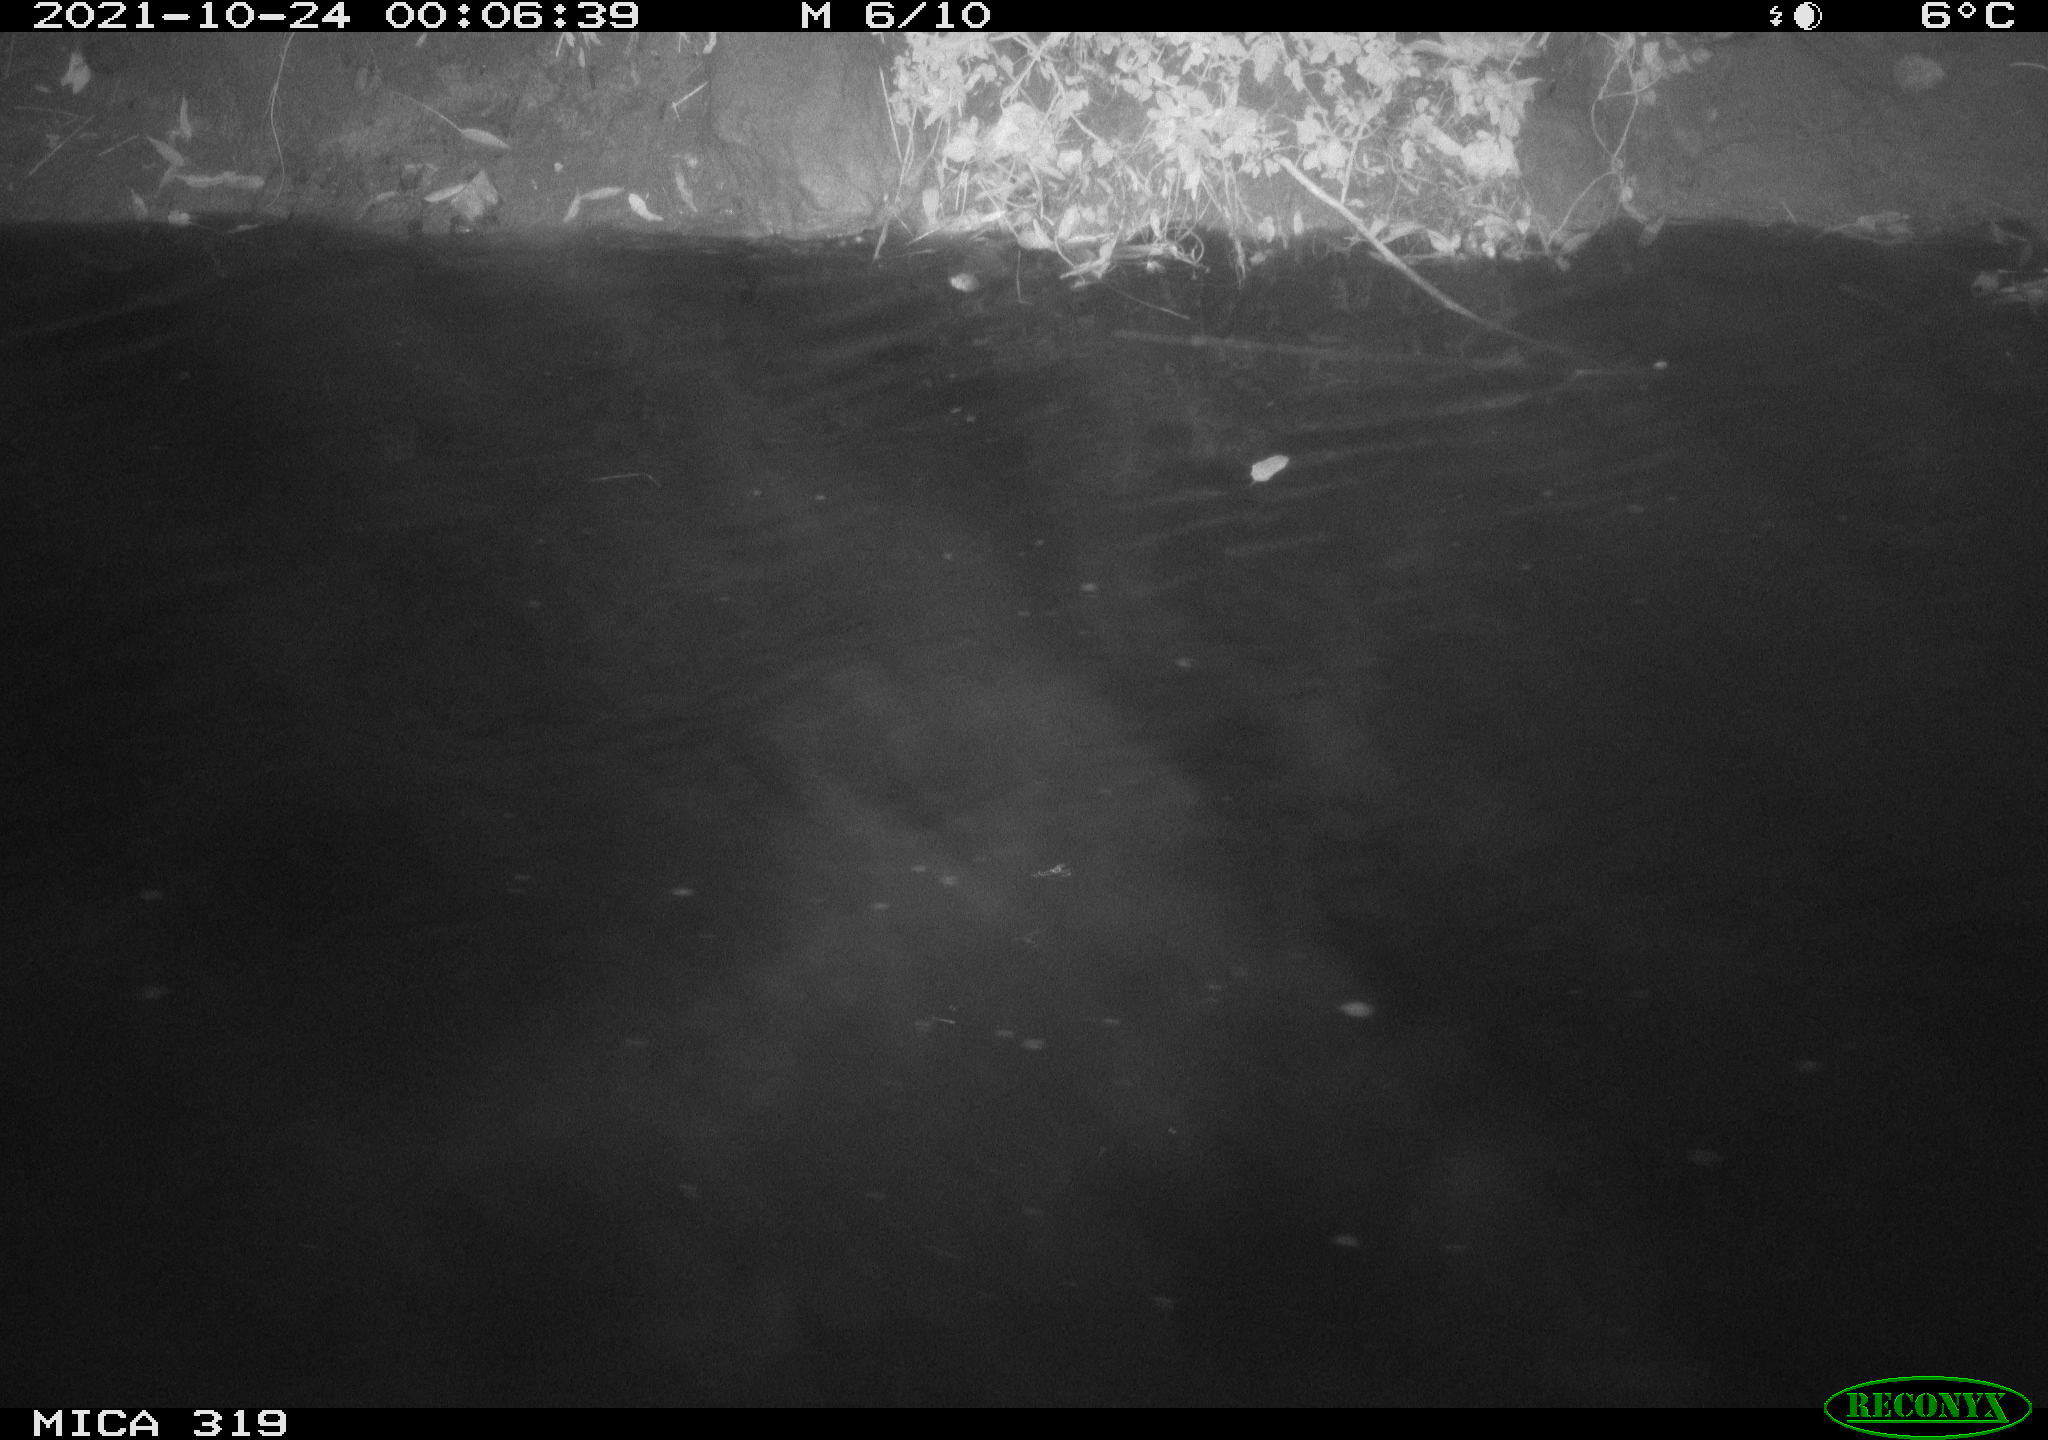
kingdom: Animalia
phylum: Chordata
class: Aves
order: Anseriformes
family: Anatidae
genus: Anas
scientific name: Anas platyrhynchos
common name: Mallard
